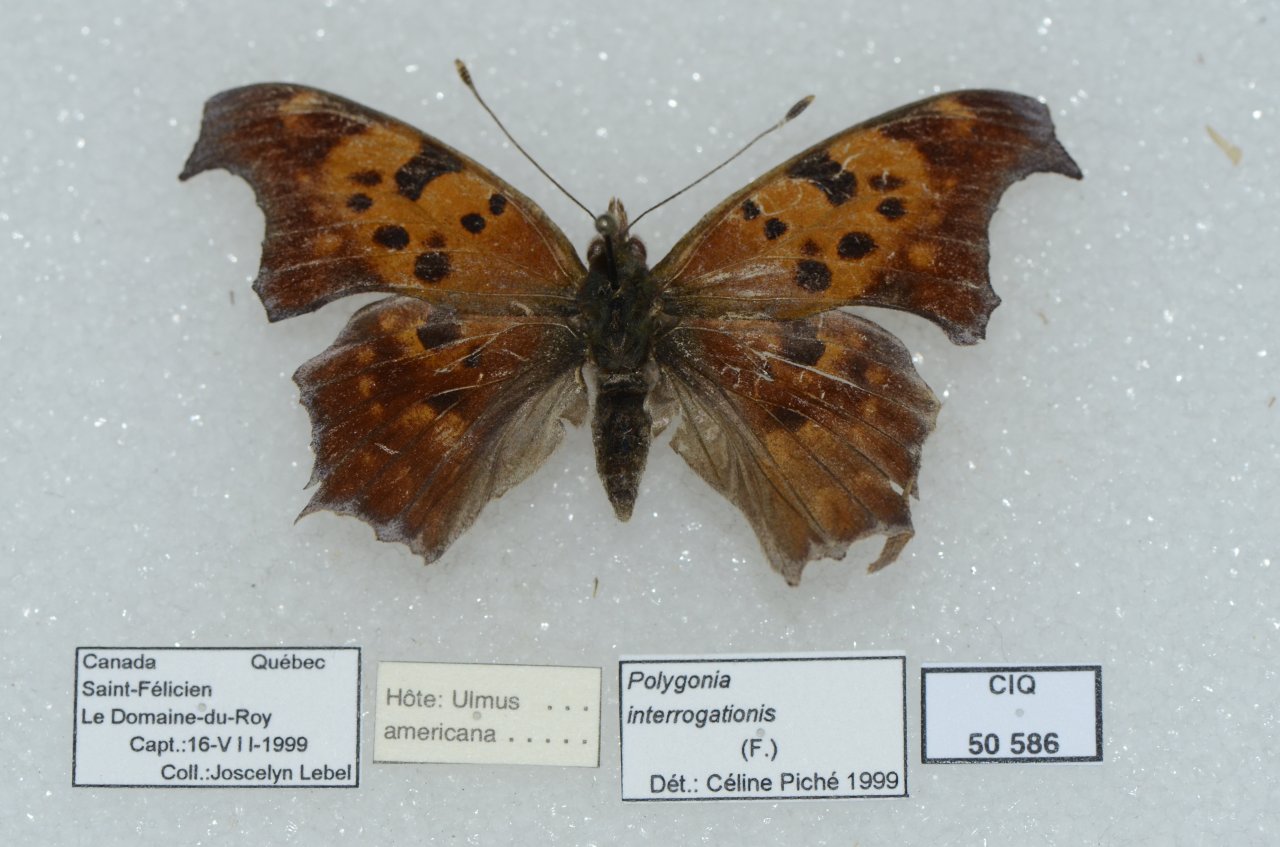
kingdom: Animalia
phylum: Arthropoda
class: Insecta
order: Lepidoptera
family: Nymphalidae
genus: Polygonia
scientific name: Polygonia interrogationis
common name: Question Mark
